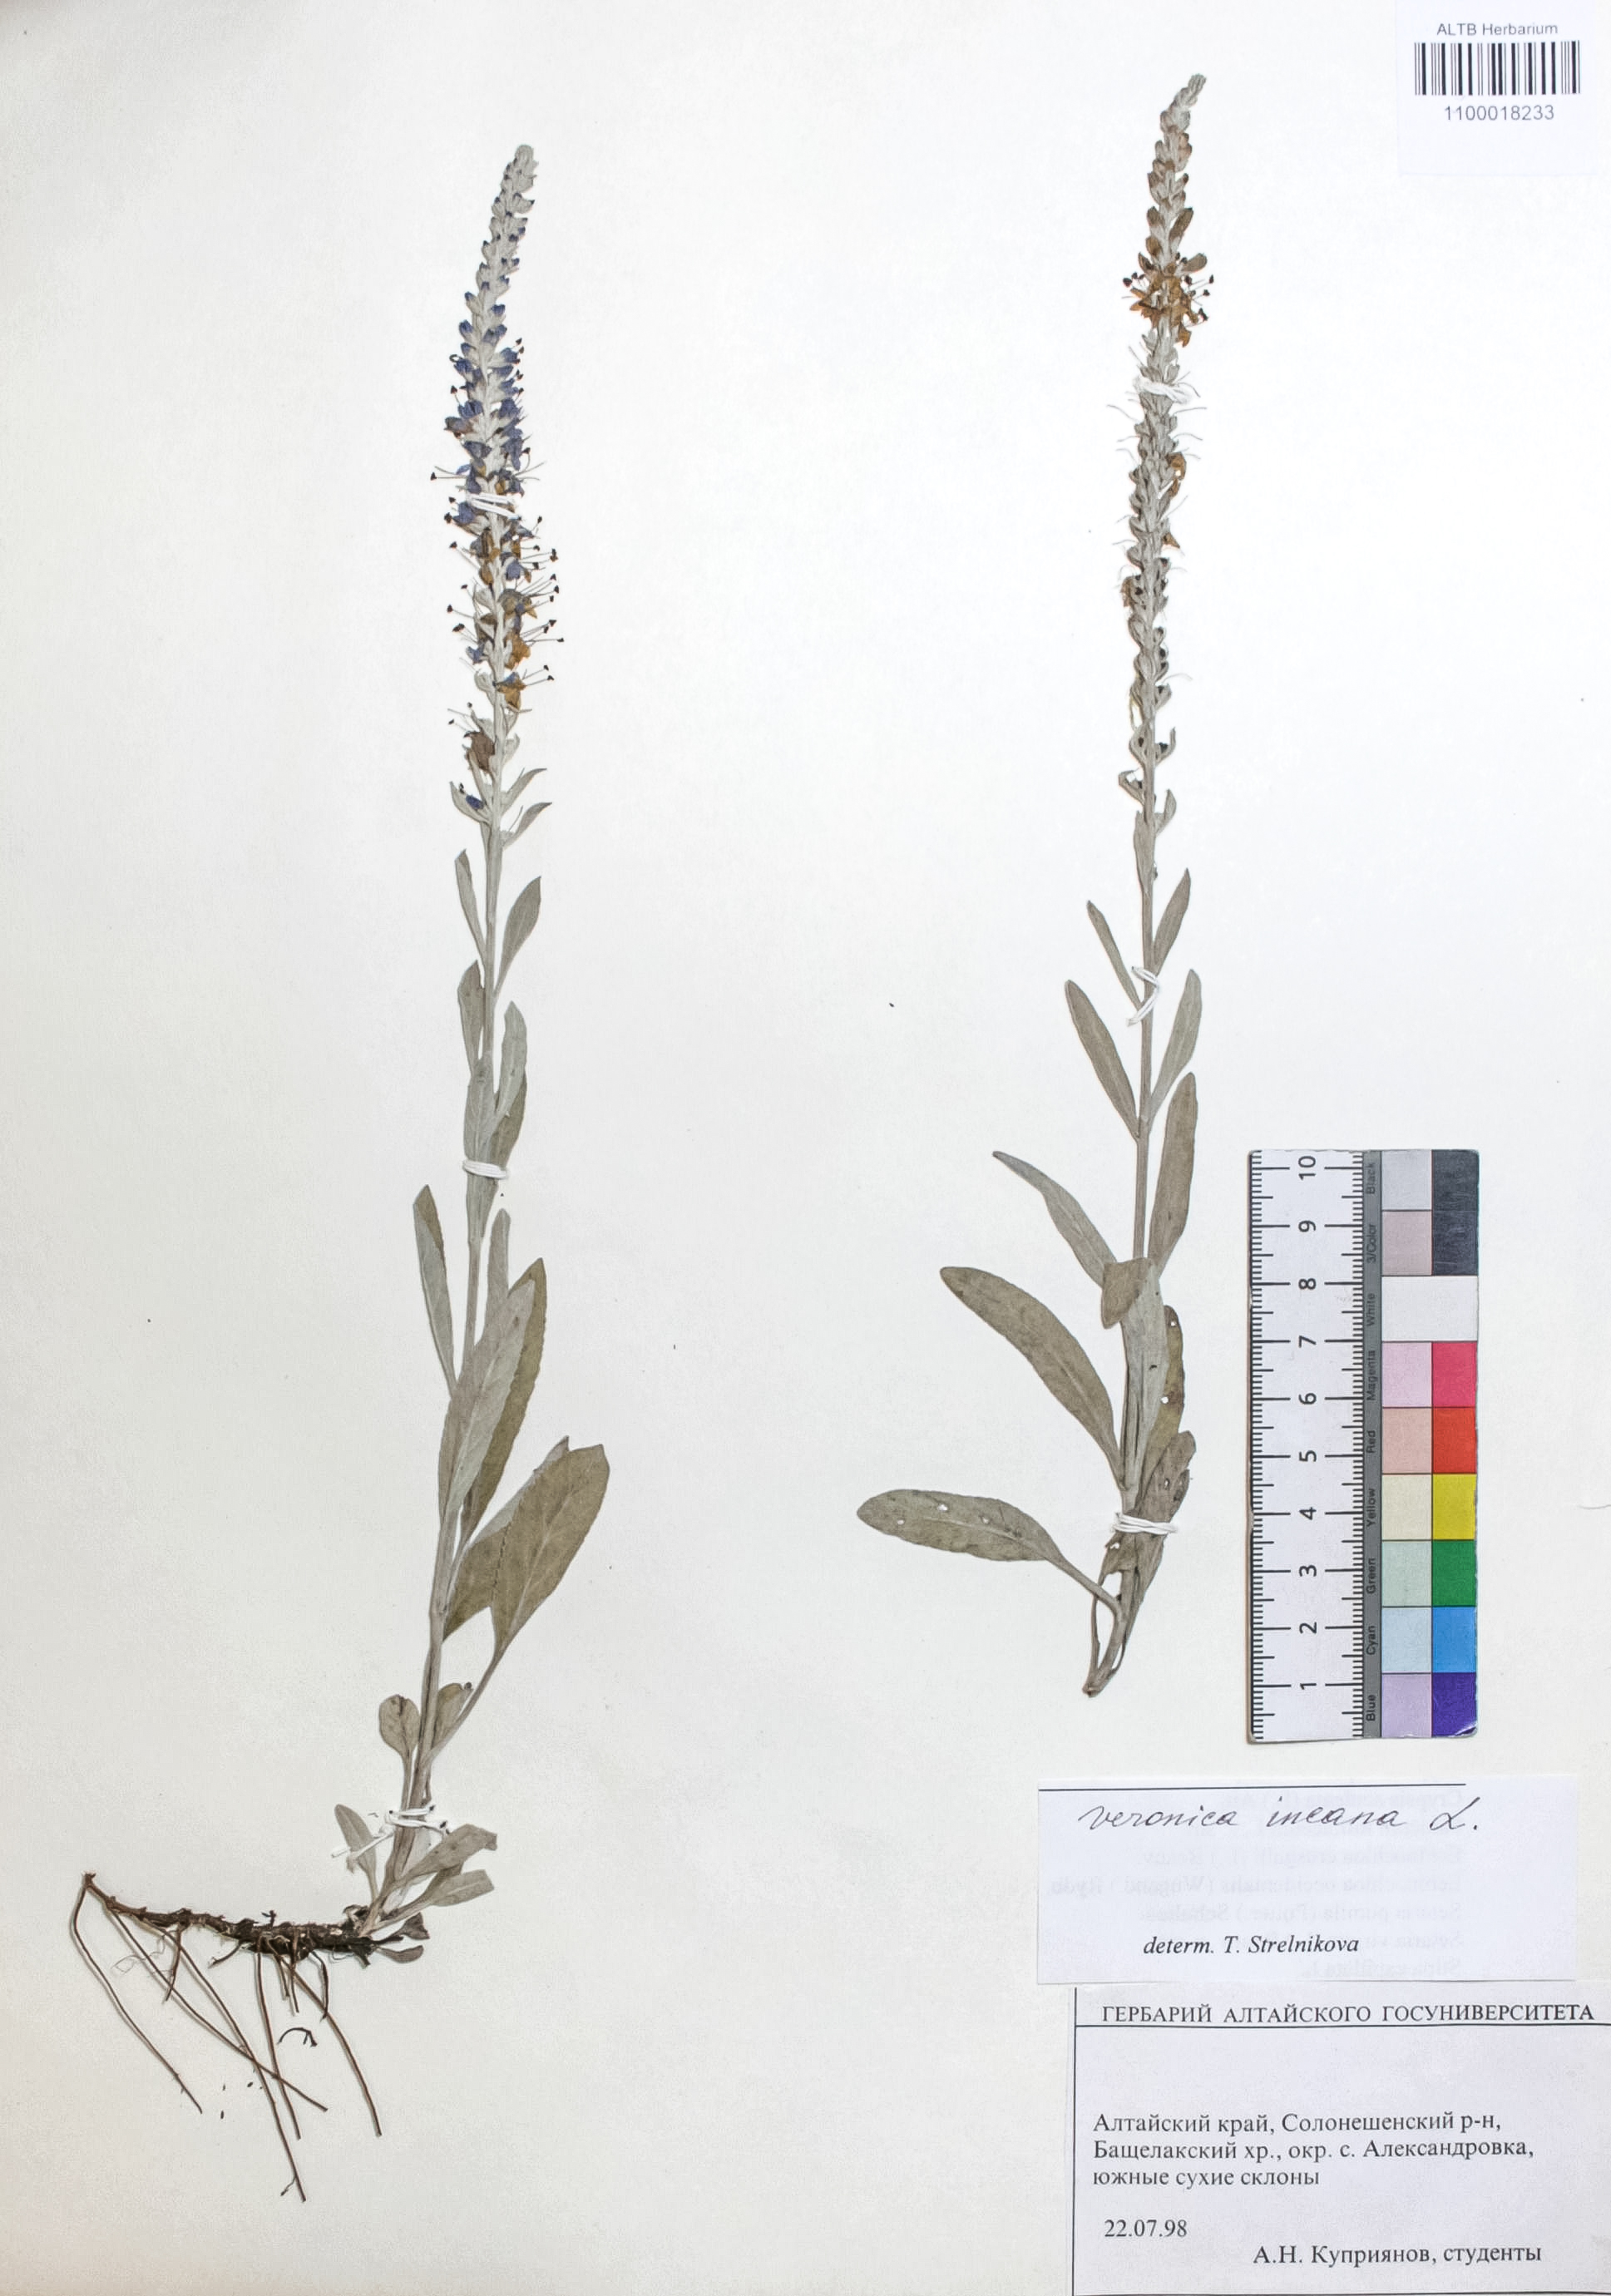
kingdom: Plantae
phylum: Tracheophyta
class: Magnoliopsida
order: Lamiales
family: Plantaginaceae
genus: Veronica
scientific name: Veronica incana
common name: Silver speedwell
